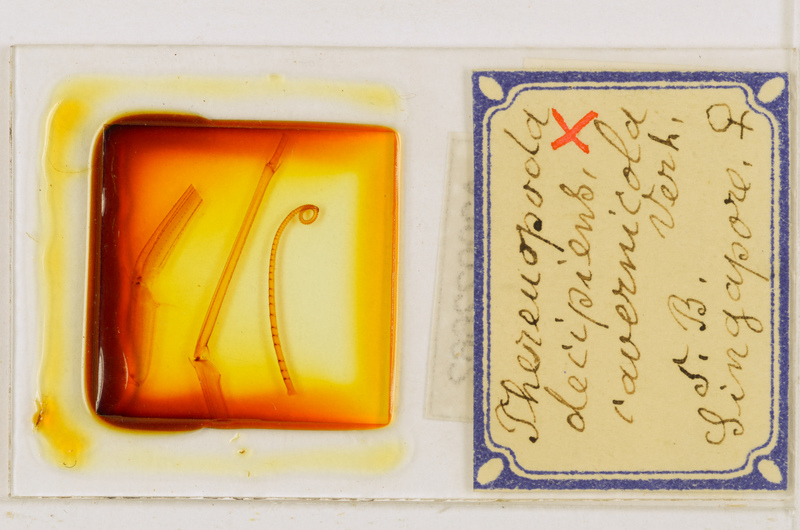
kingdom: Animalia
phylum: Arthropoda
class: Chilopoda
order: Scutigeromorpha
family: Scutigeridae
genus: Thereuopoda
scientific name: Thereuopoda longicornis
